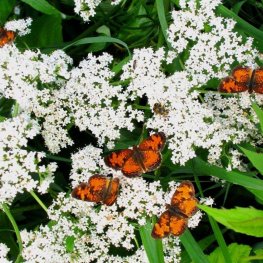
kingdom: Animalia
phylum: Arthropoda
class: Insecta
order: Lepidoptera
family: Nymphalidae
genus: Phyciodes
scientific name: Phyciodes tharos
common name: Northern Crescent
